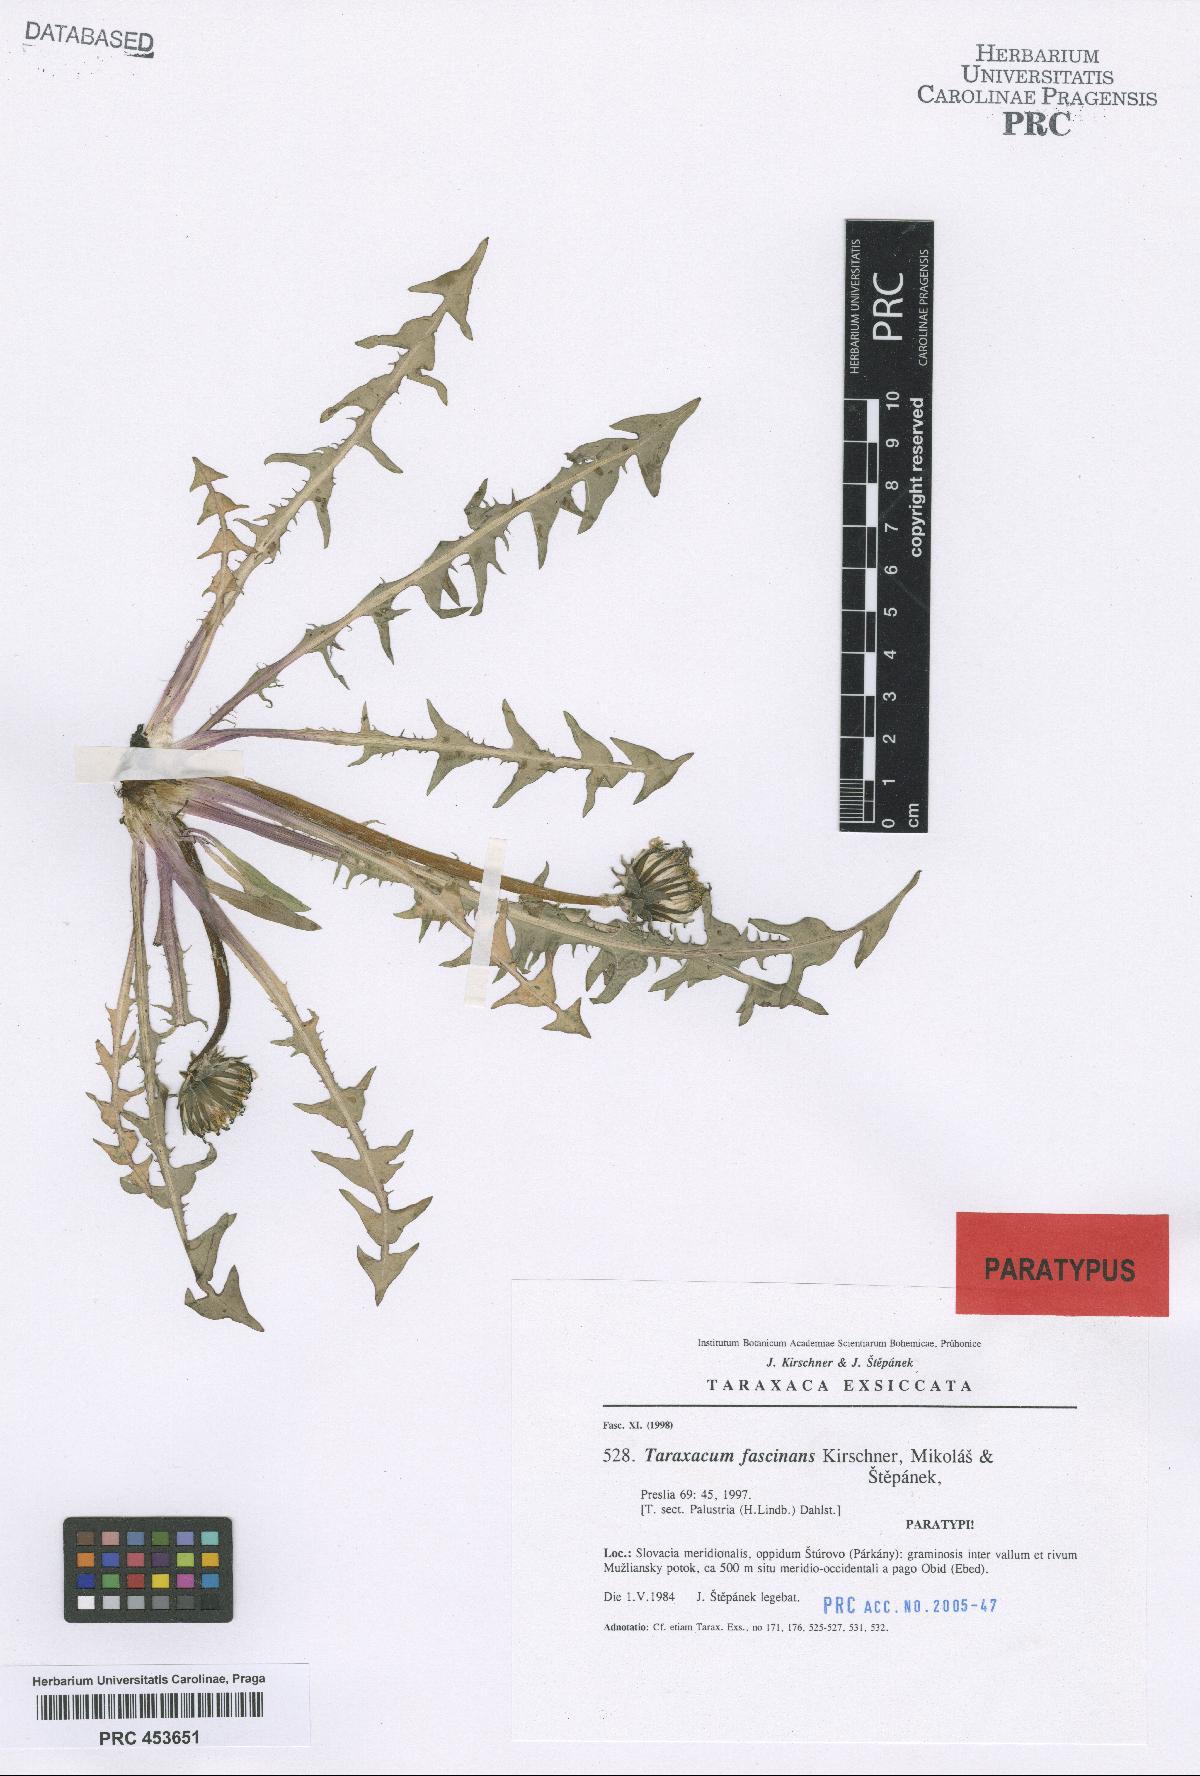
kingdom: Plantae
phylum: Tracheophyta
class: Magnoliopsida
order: Asterales
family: Asteraceae
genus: Taraxacum
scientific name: Taraxacum fascinans
